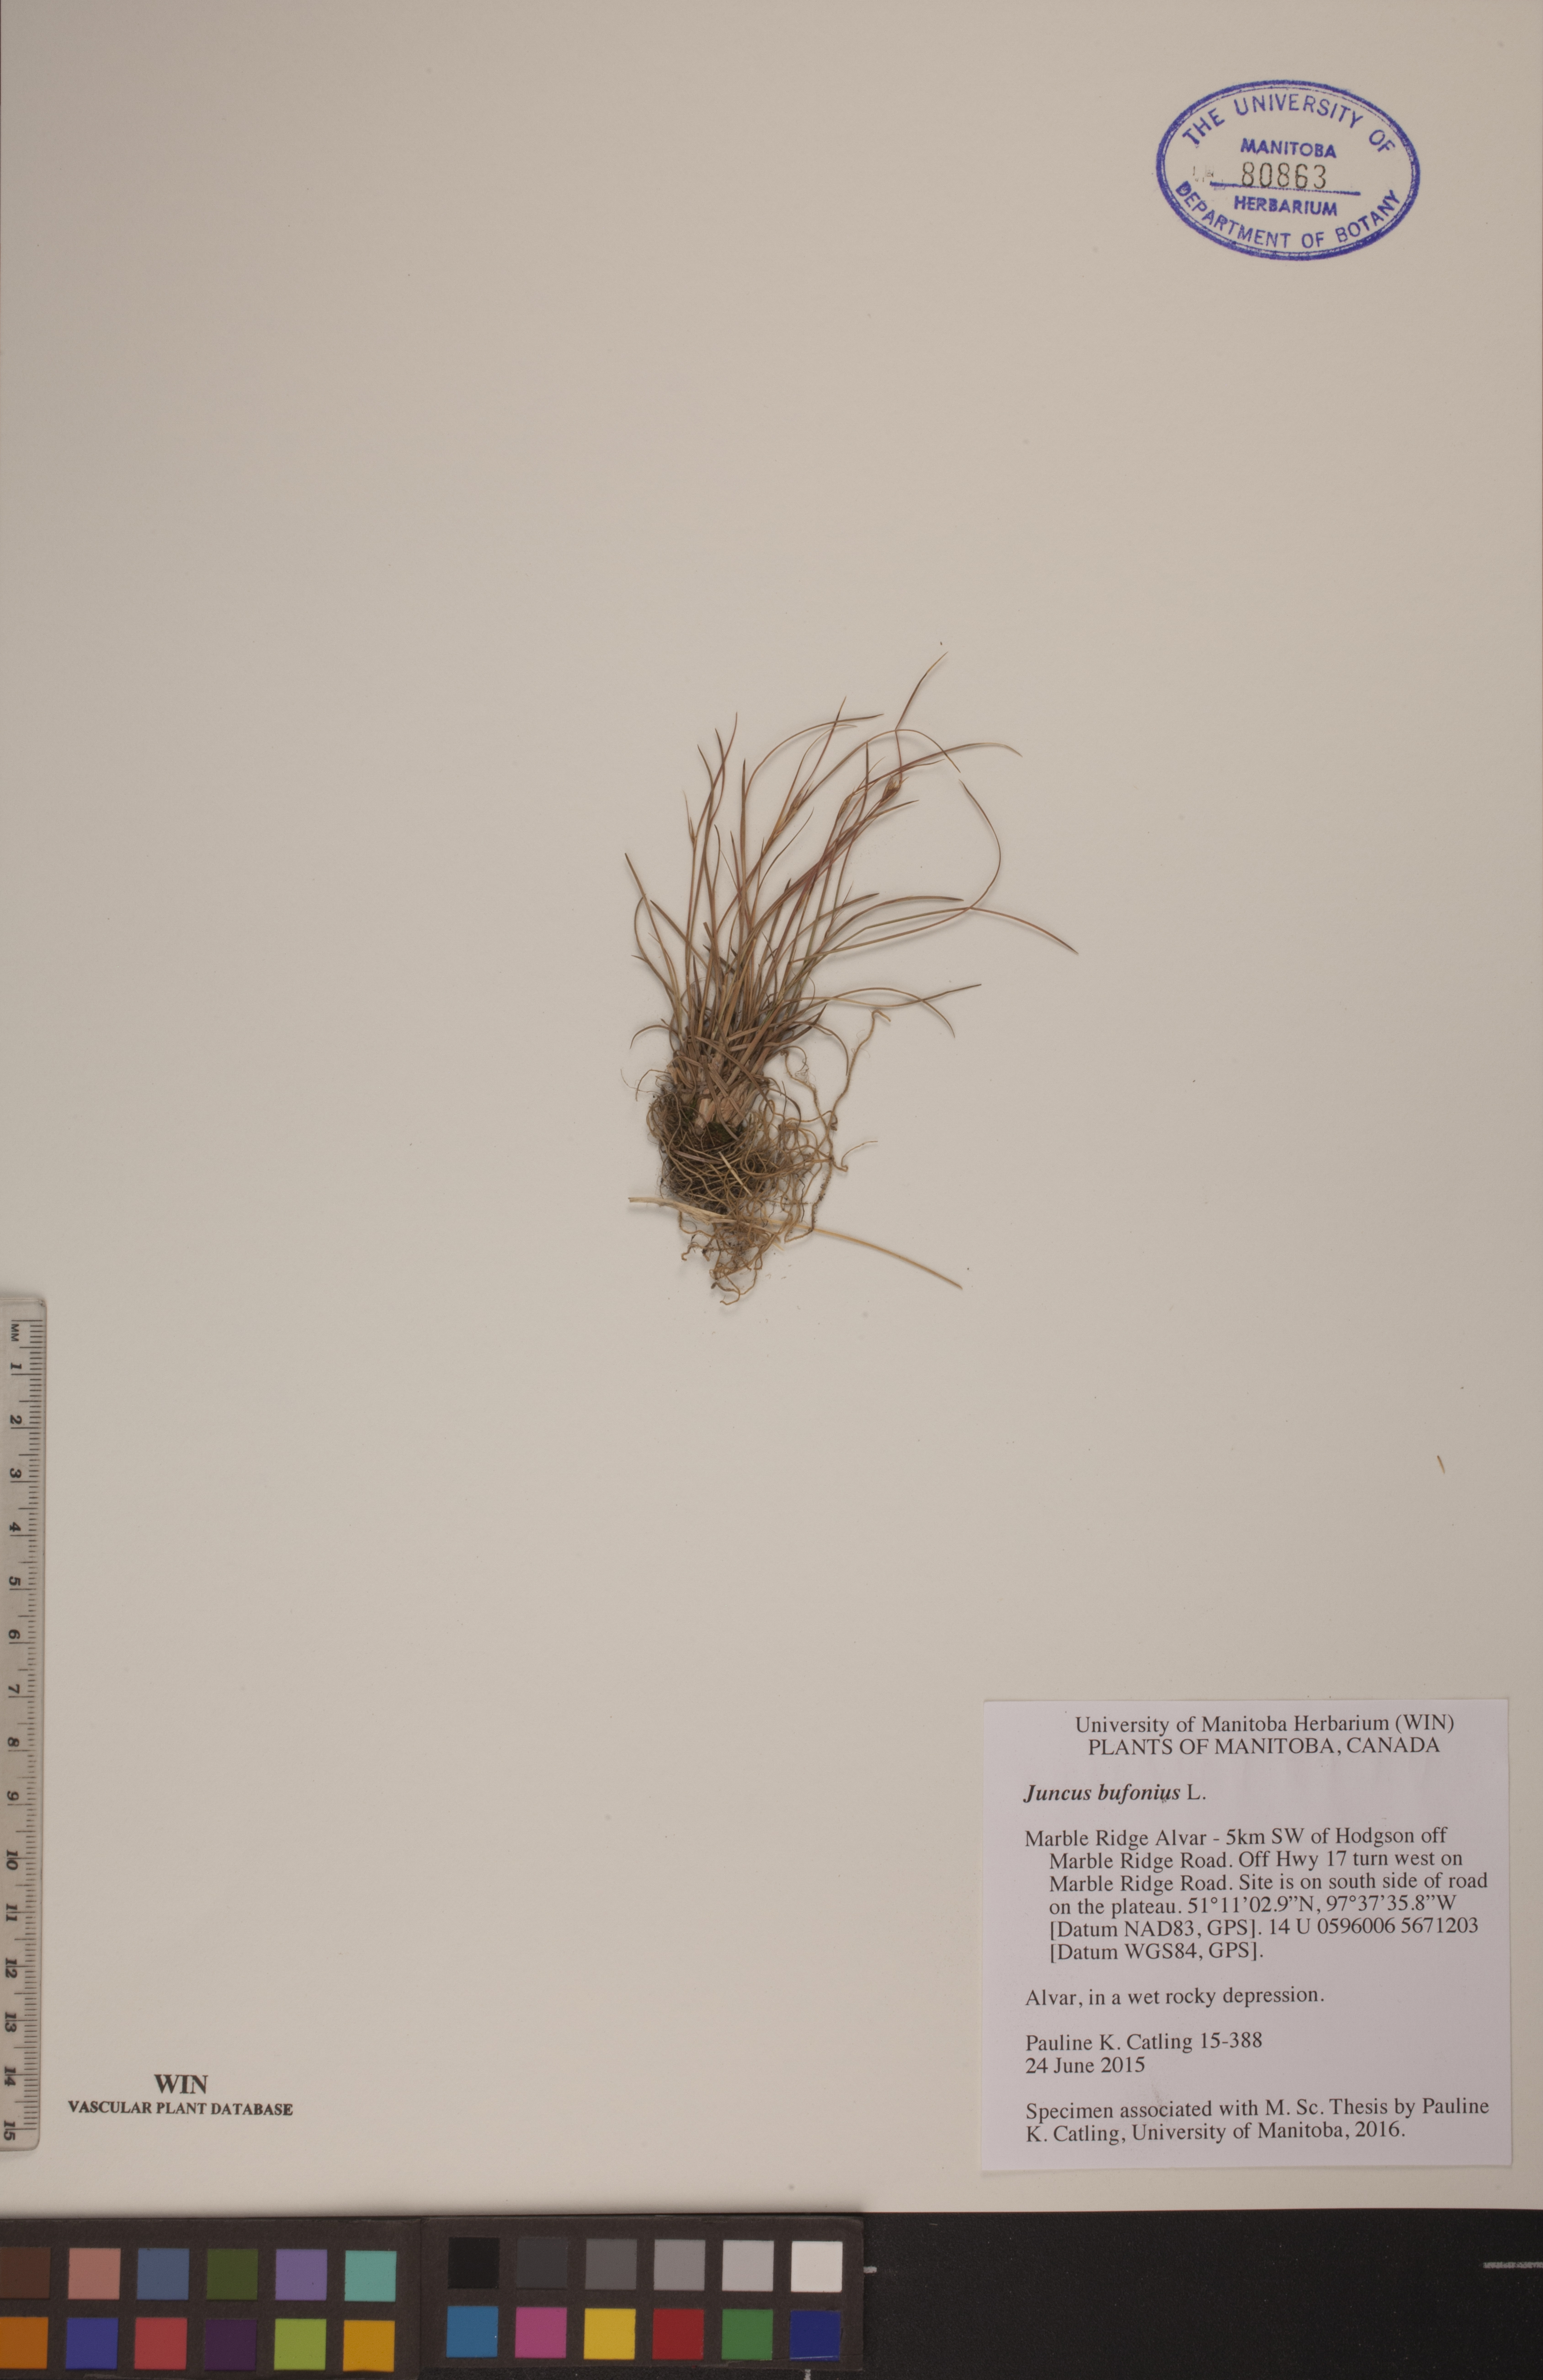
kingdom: Plantae
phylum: Tracheophyta
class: Liliopsida
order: Poales
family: Juncaceae
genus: Juncus
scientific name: Juncus bufonius
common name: Toad rush
